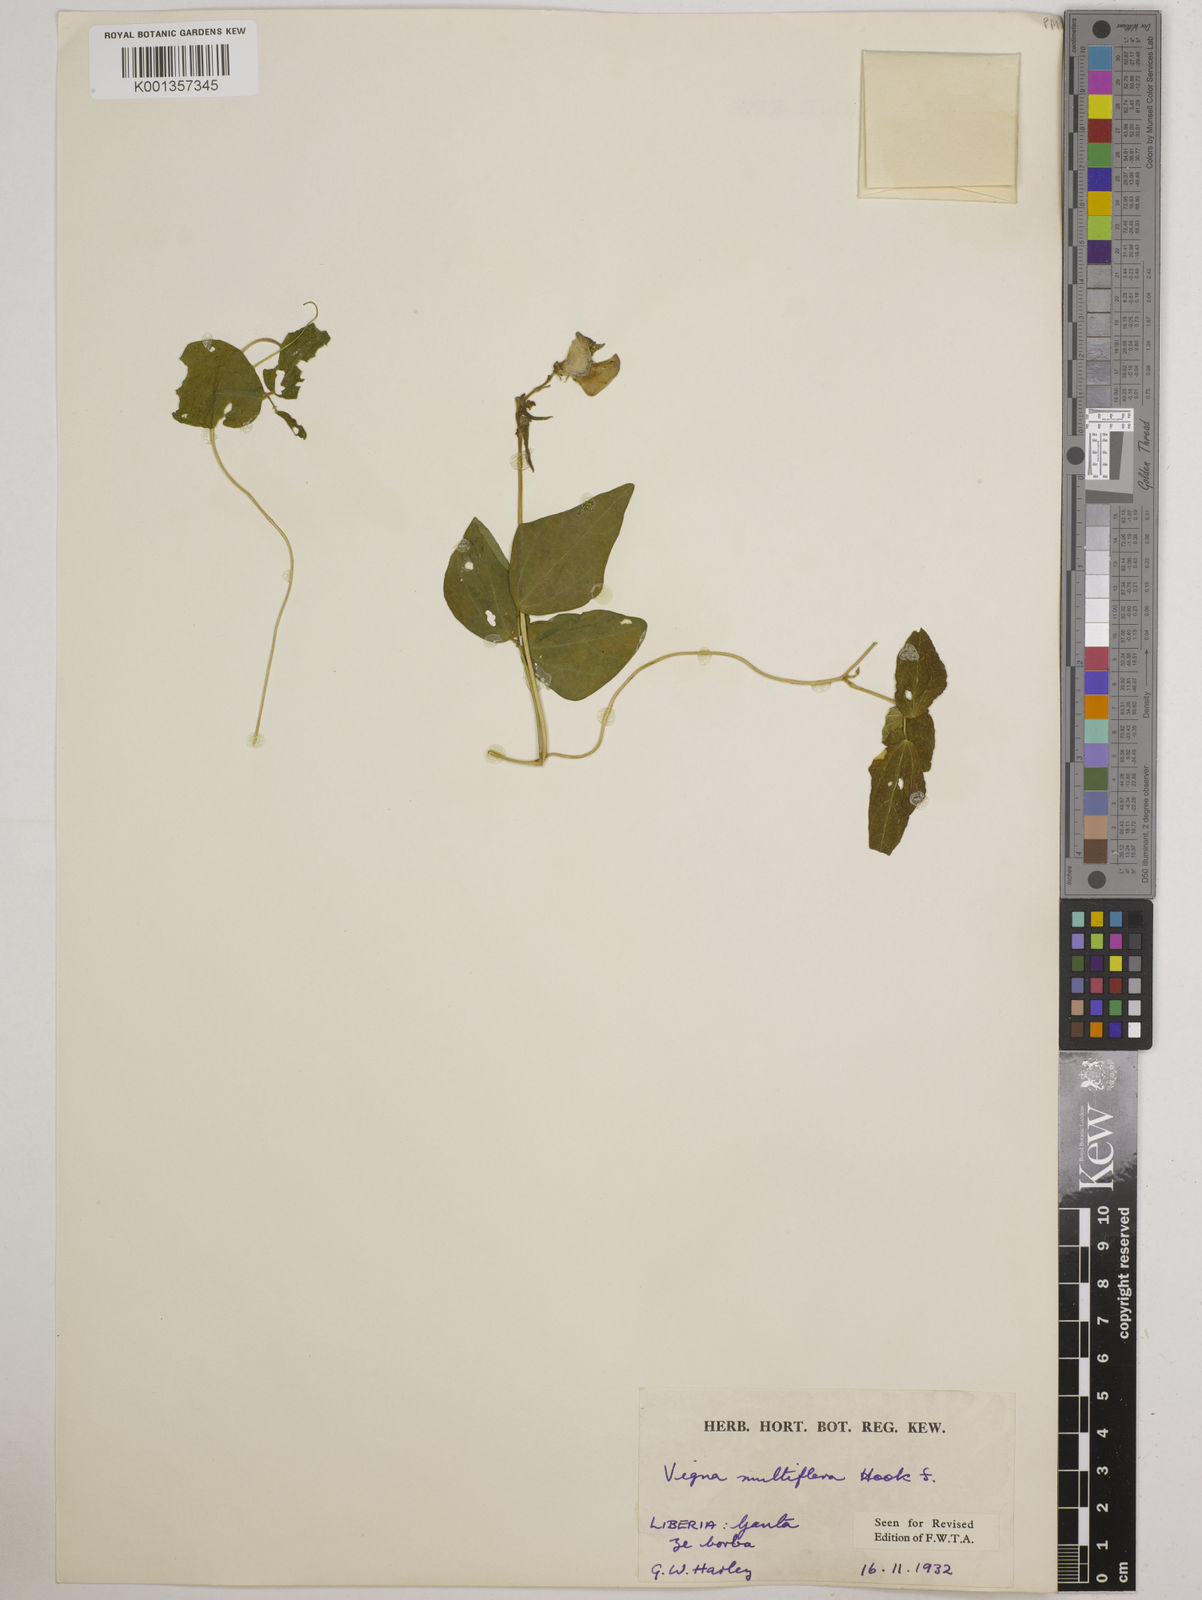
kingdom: Plantae
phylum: Tracheophyta
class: Magnoliopsida
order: Fabales
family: Fabaceae
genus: Vigna
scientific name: Vigna gracilis
